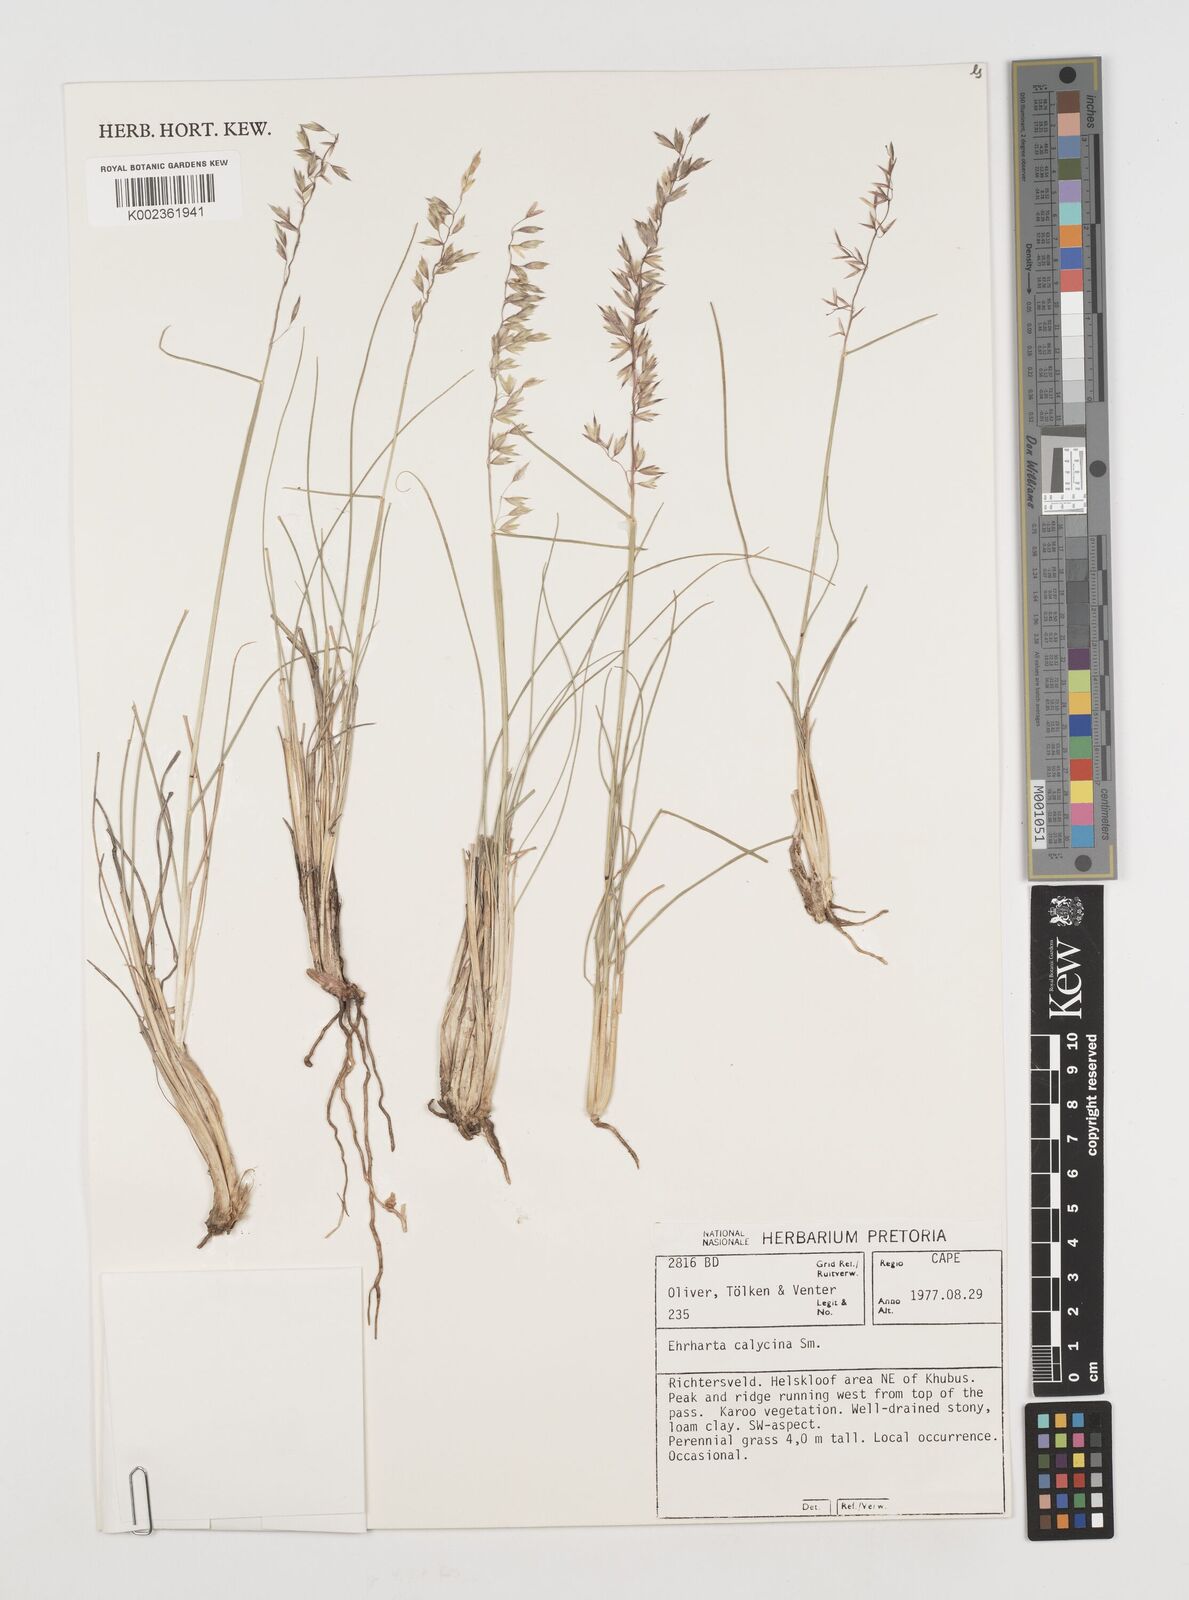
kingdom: Plantae
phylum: Tracheophyta
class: Liliopsida
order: Poales
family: Poaceae
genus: Ehrharta
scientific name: Ehrharta calycina
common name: Perennial veldtgrass
